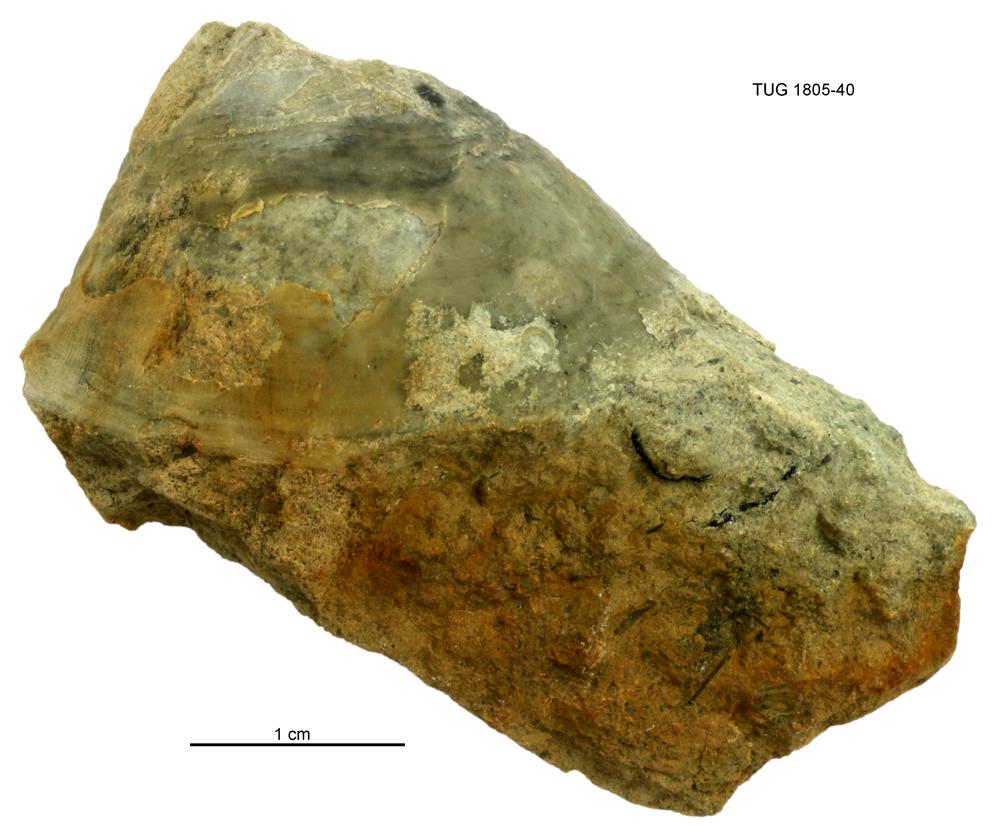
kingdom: Animalia
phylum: Mollusca
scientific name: Mollusca
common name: Mollusca
